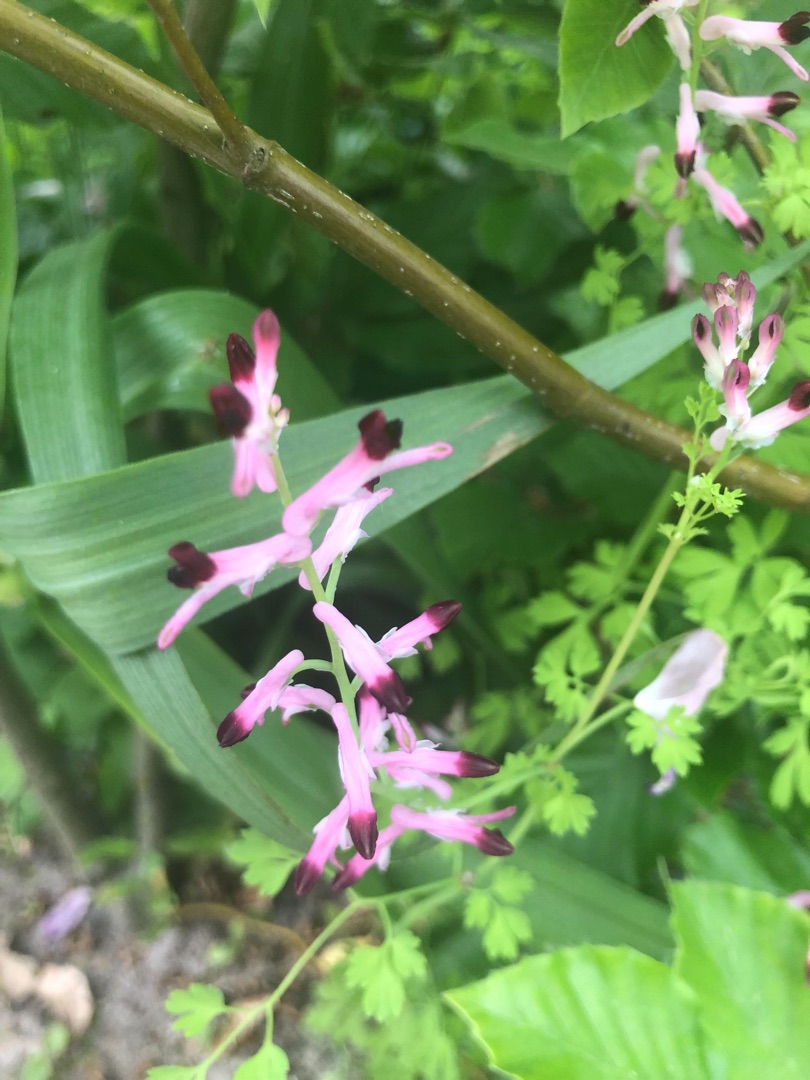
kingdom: Plantae
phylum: Tracheophyta
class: Magnoliopsida
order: Ranunculales
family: Papaveraceae
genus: Fumaria
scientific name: Fumaria muralis
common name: Mur-jordrøg
